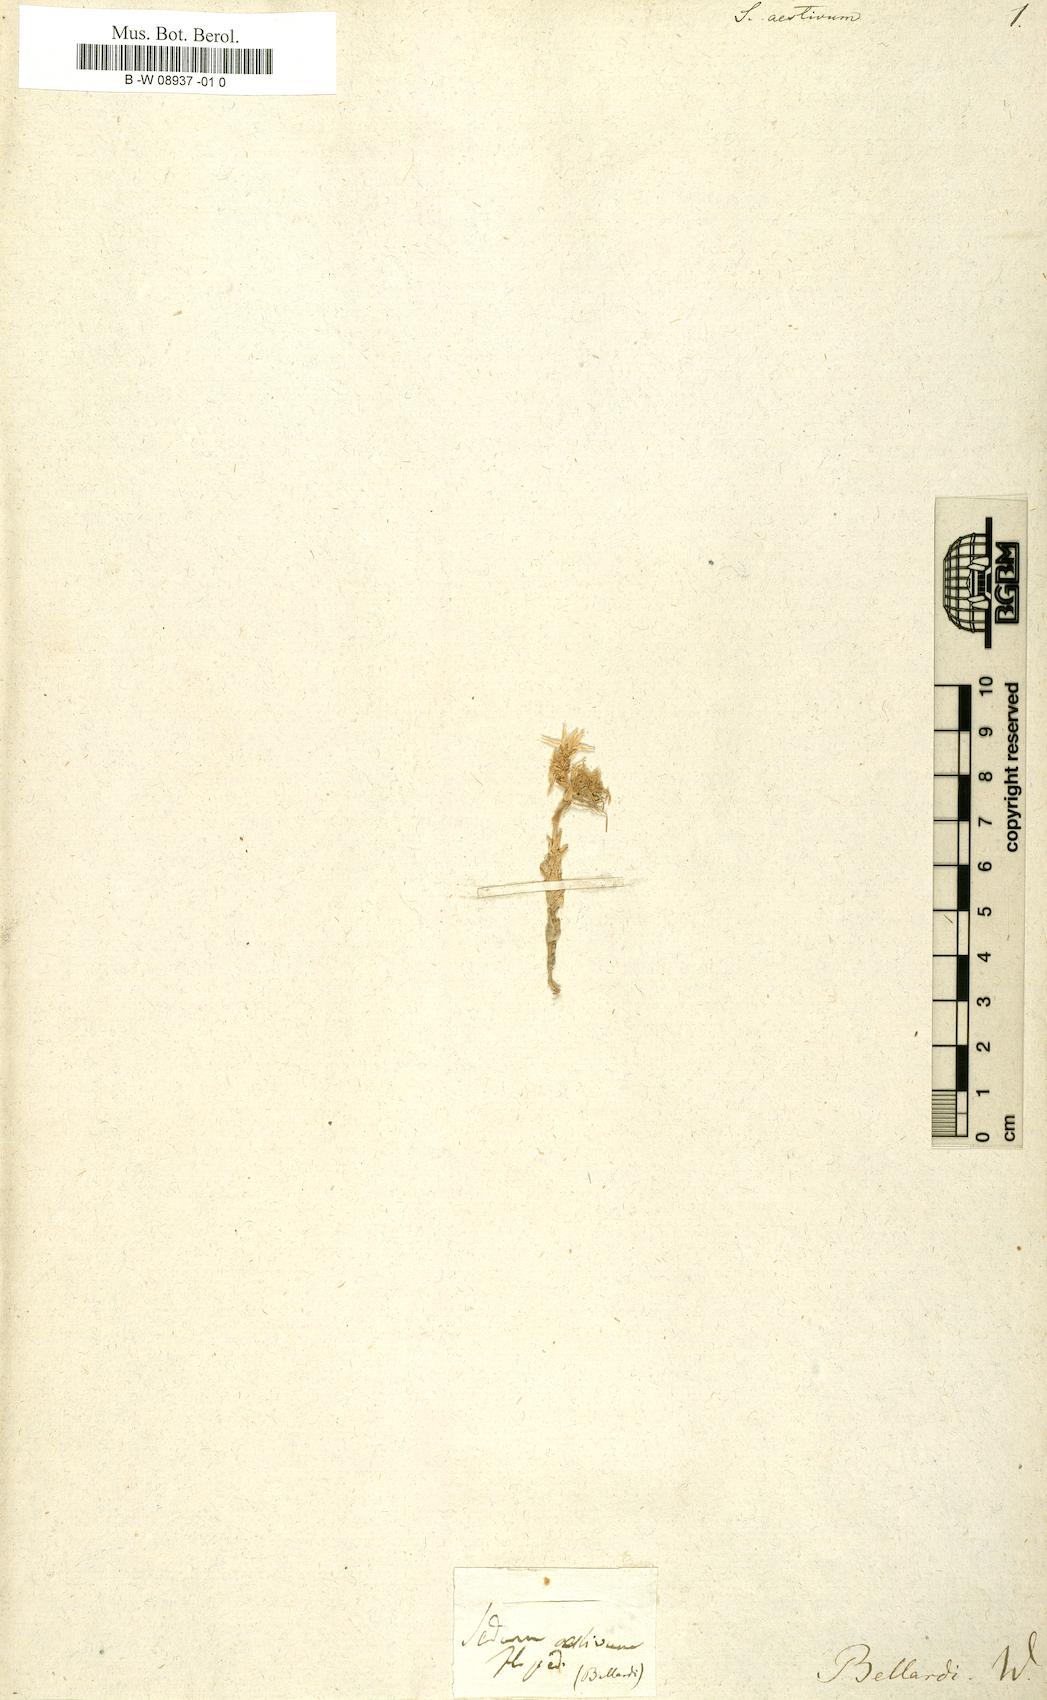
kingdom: Plantae
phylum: Tracheophyta
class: Magnoliopsida
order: Saxifragales
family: Crassulaceae
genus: Sedum
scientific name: Sedum
